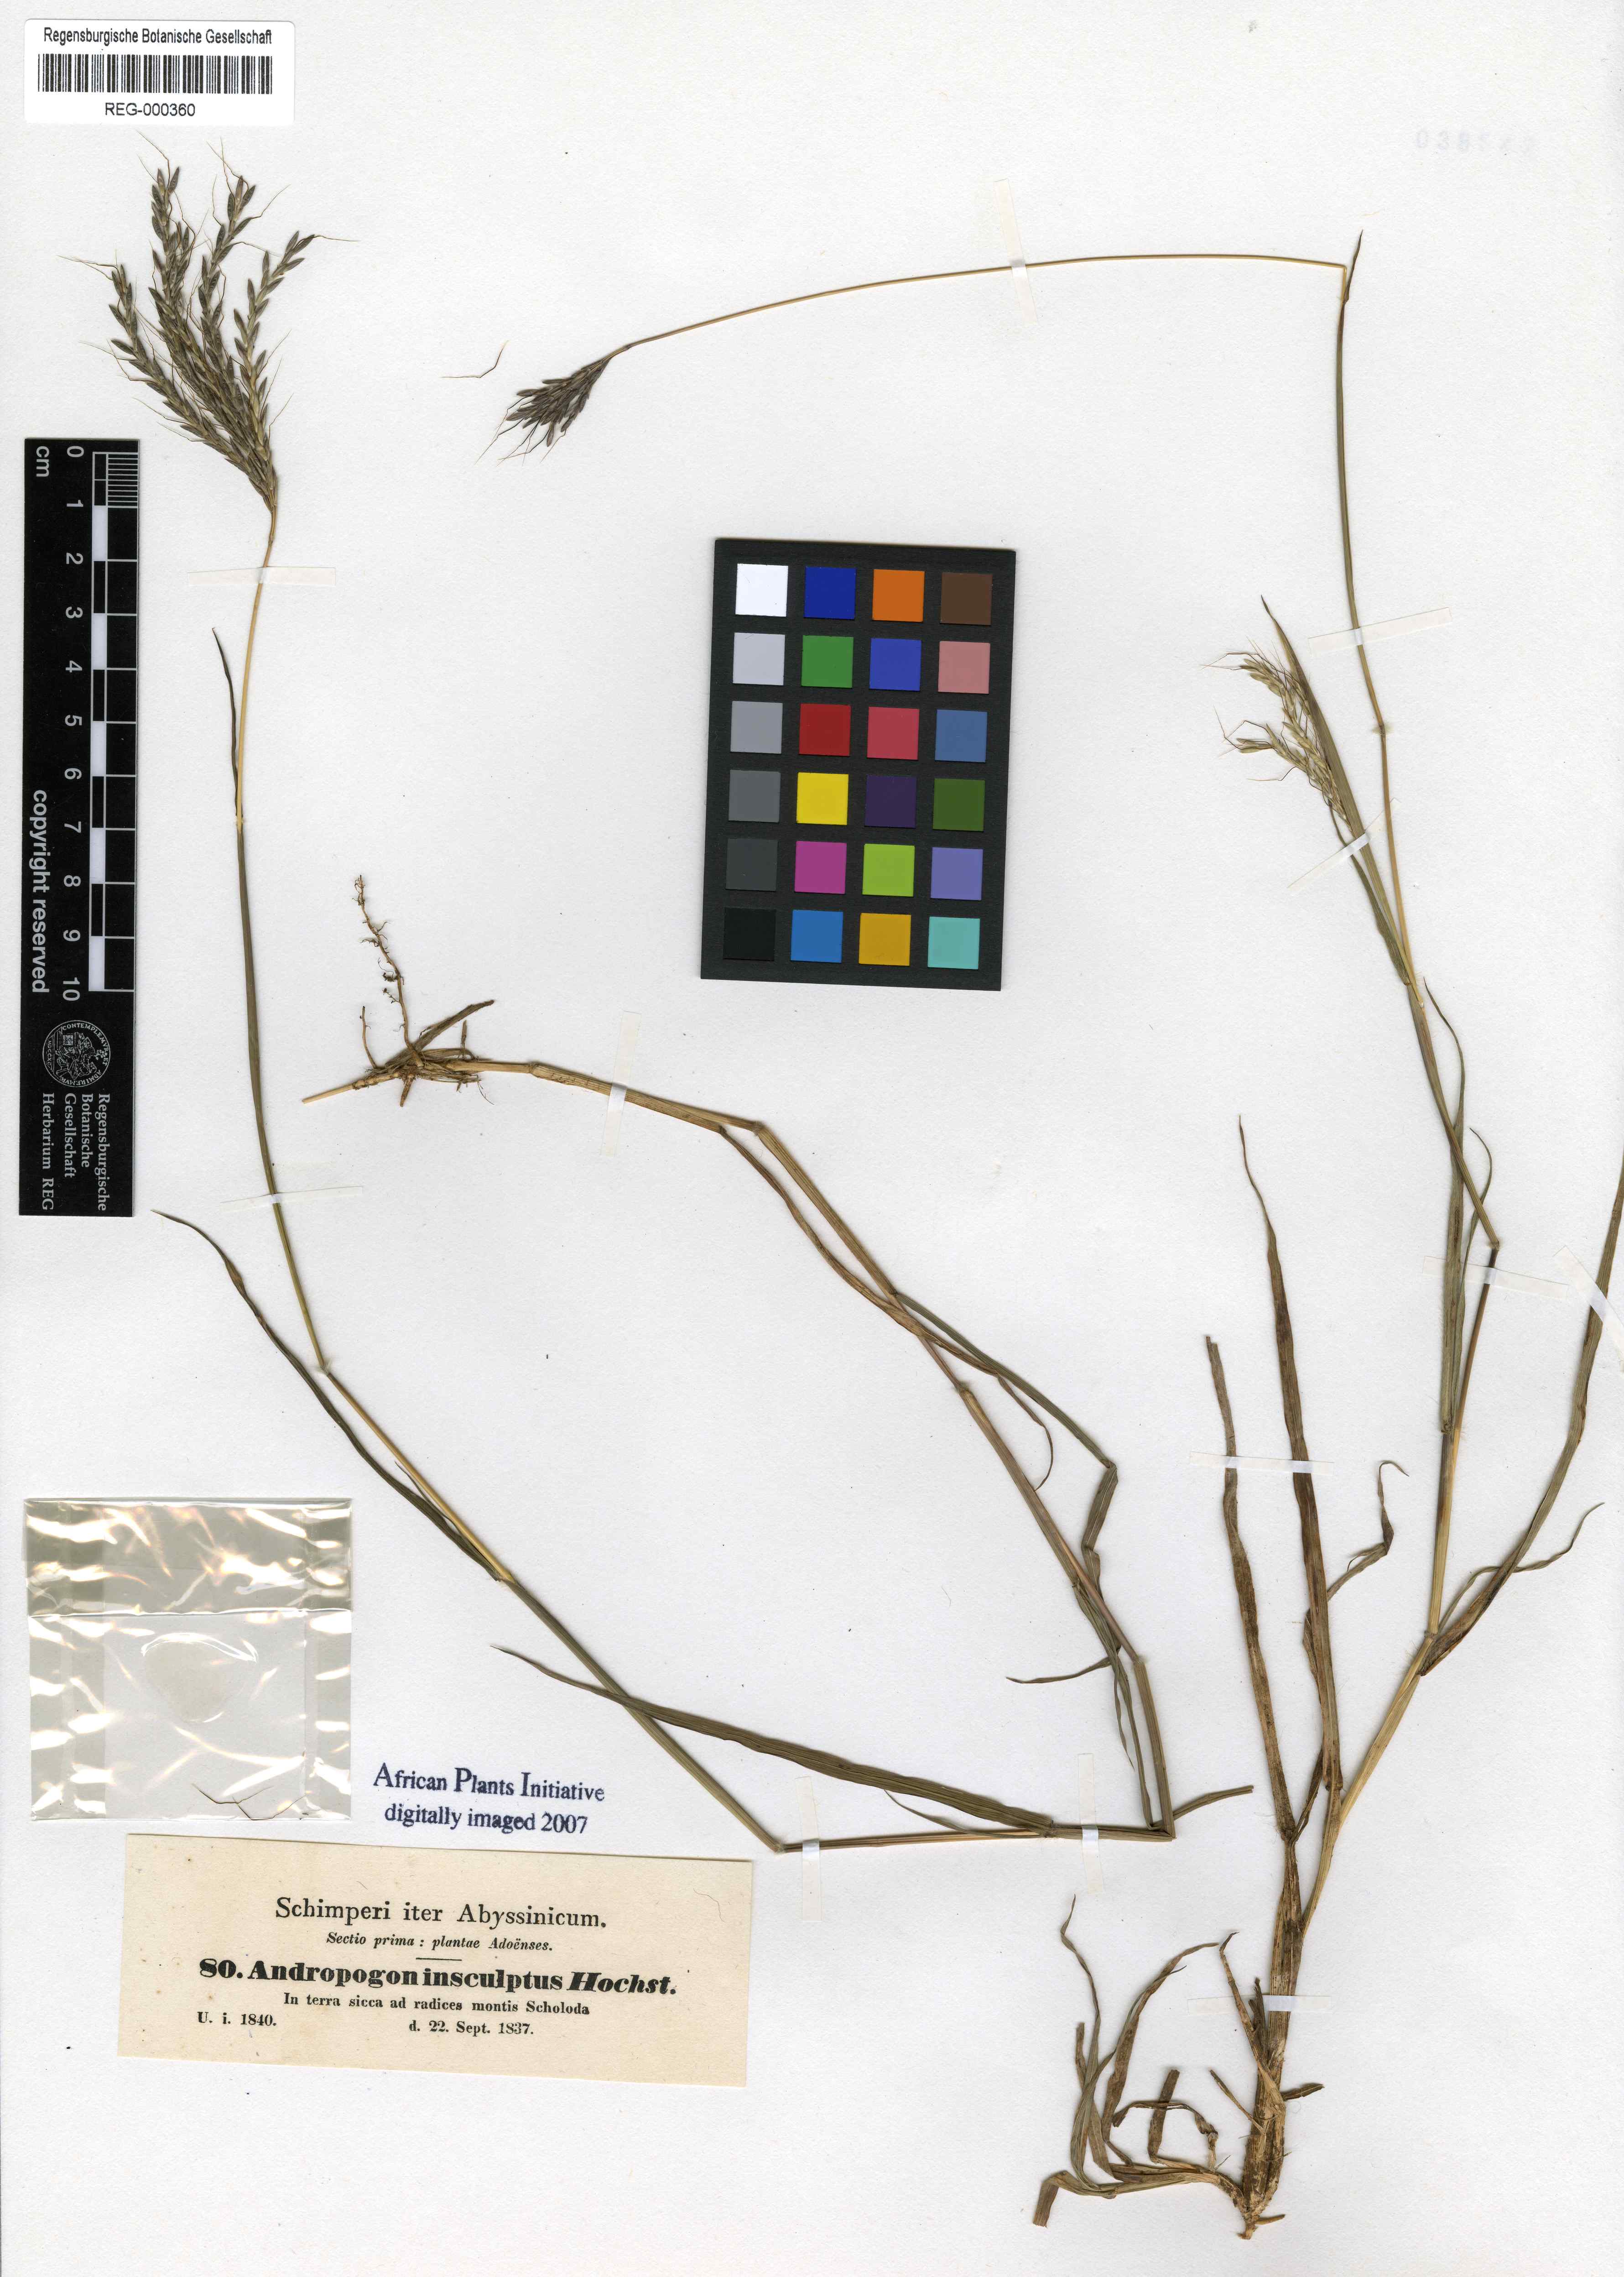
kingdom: Plantae
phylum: Tracheophyta
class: Liliopsida
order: Poales
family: Poaceae
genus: Bothriochloa
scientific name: Bothriochloa insculpta
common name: Creeping-bluegrass
